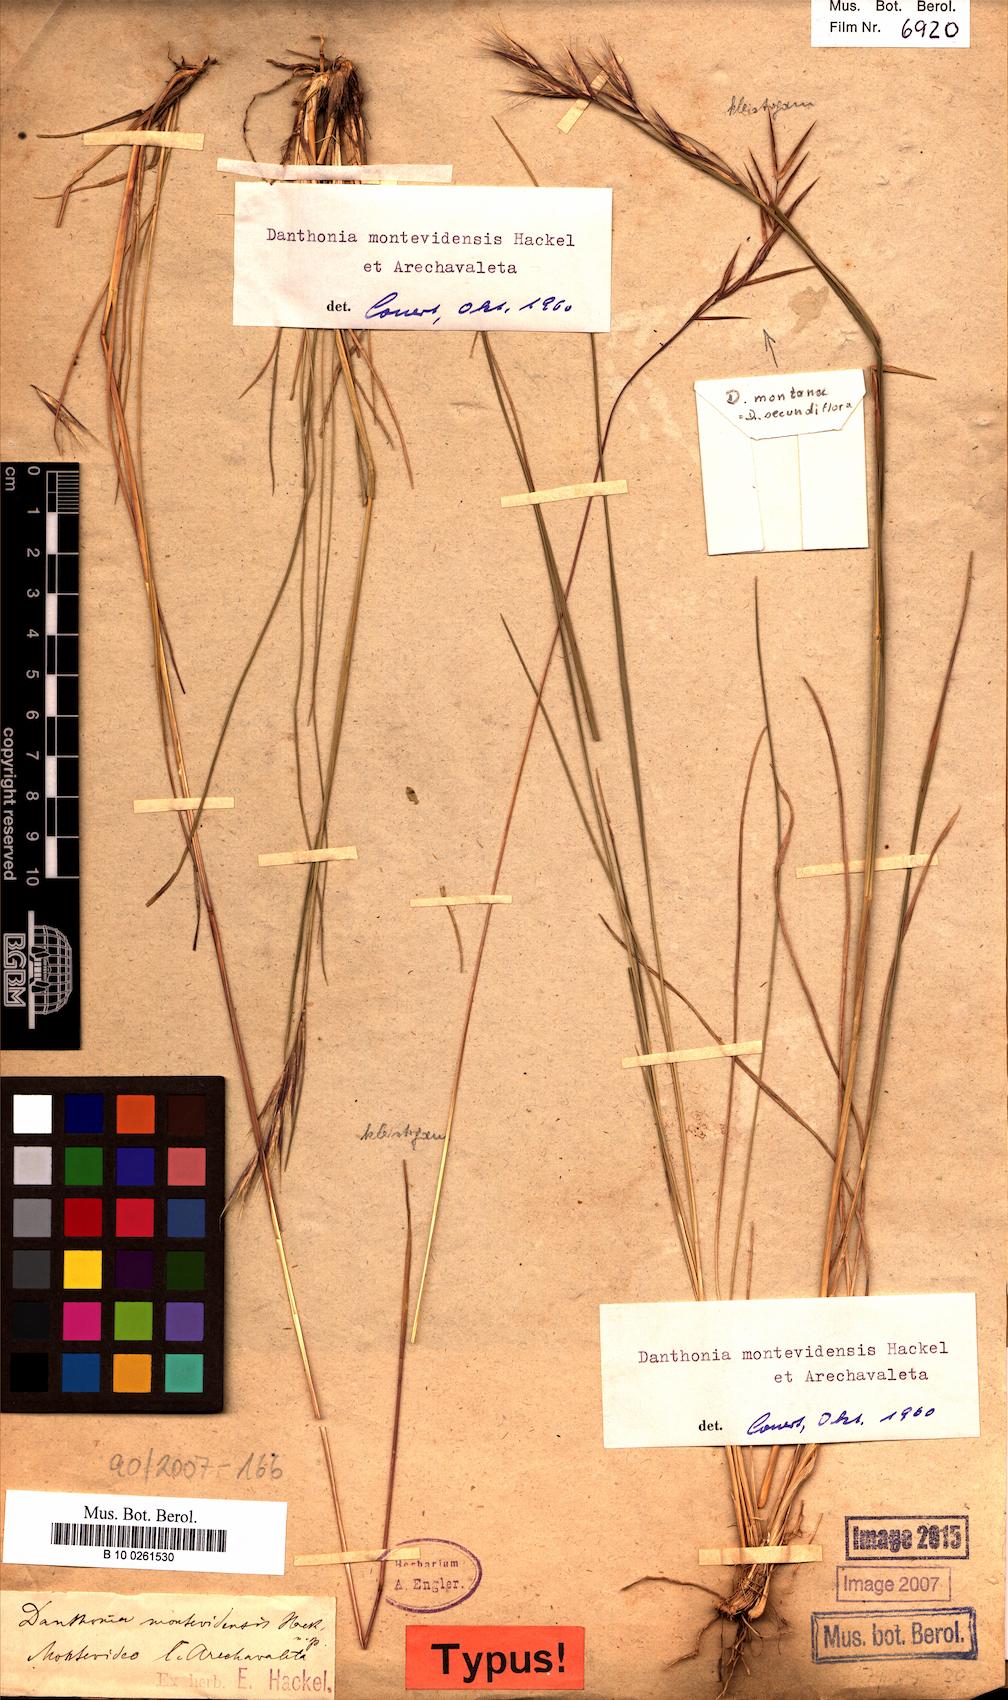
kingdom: Plantae
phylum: Tracheophyta
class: Liliopsida
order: Poales
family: Poaceae
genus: Danthonia
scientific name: Danthonia montevidensis
